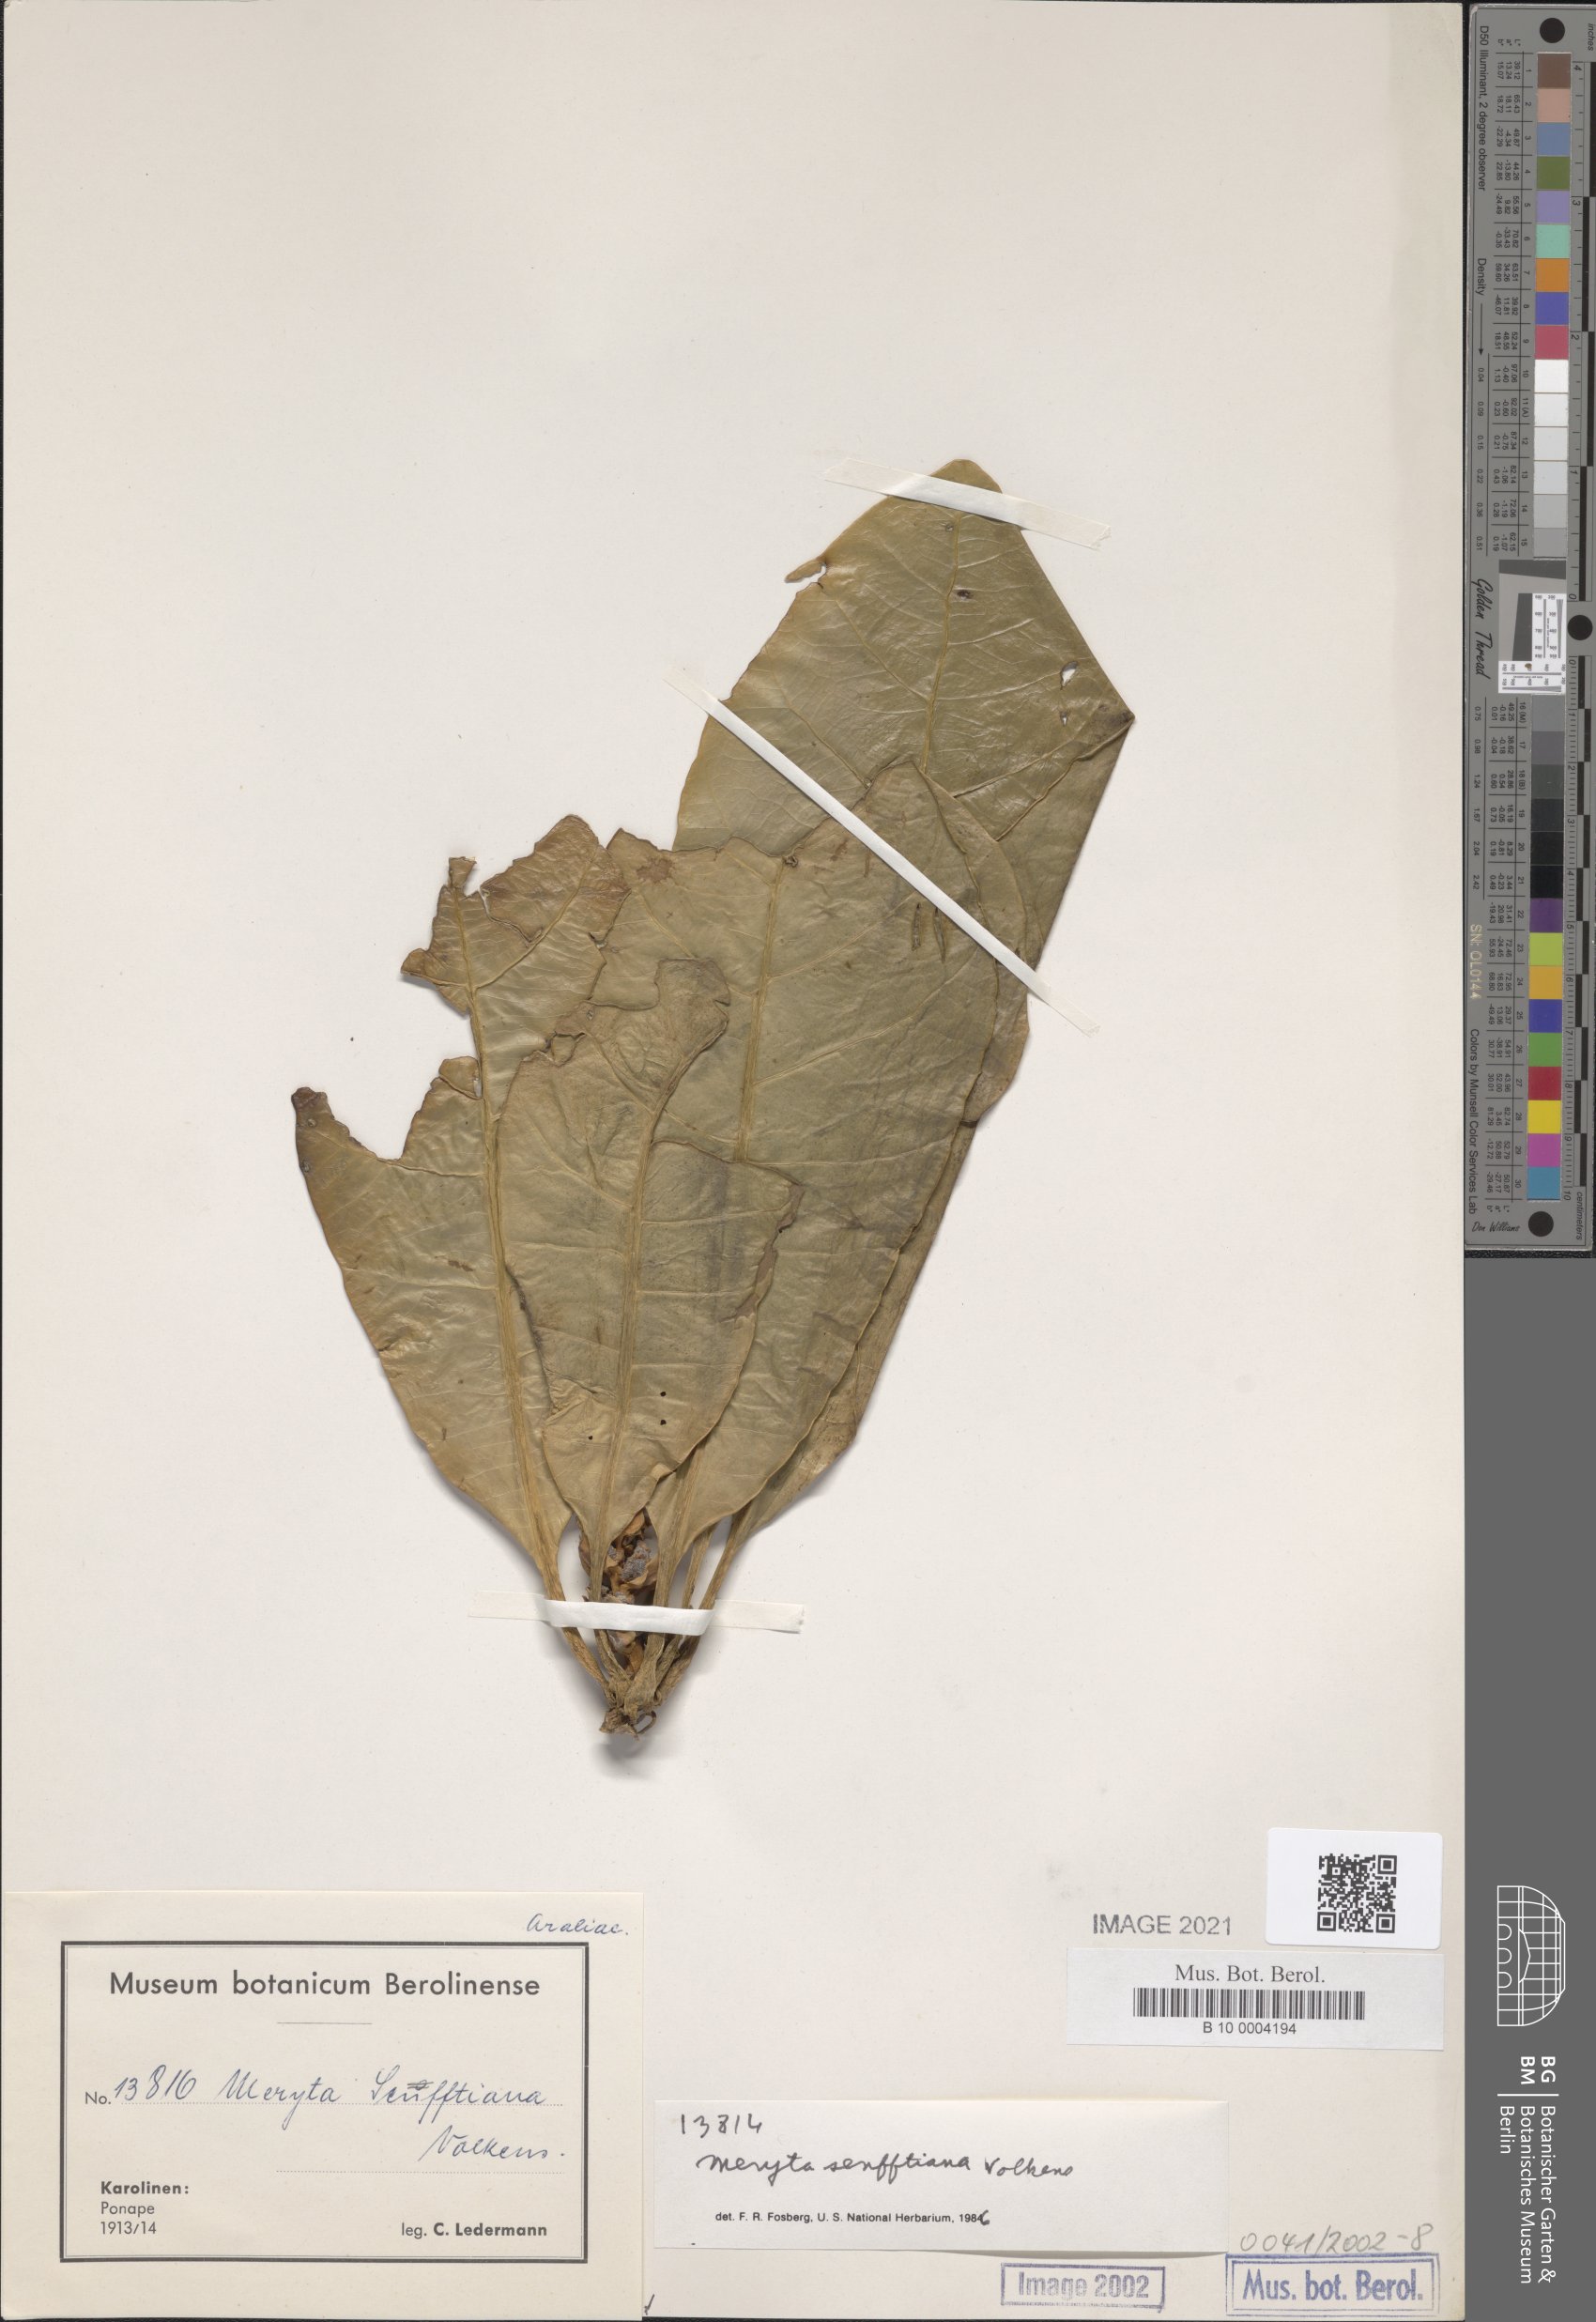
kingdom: Plantae
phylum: Tracheophyta
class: Magnoliopsida
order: Apiales
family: Araliaceae
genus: Meryta
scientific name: Meryta senfftiana
